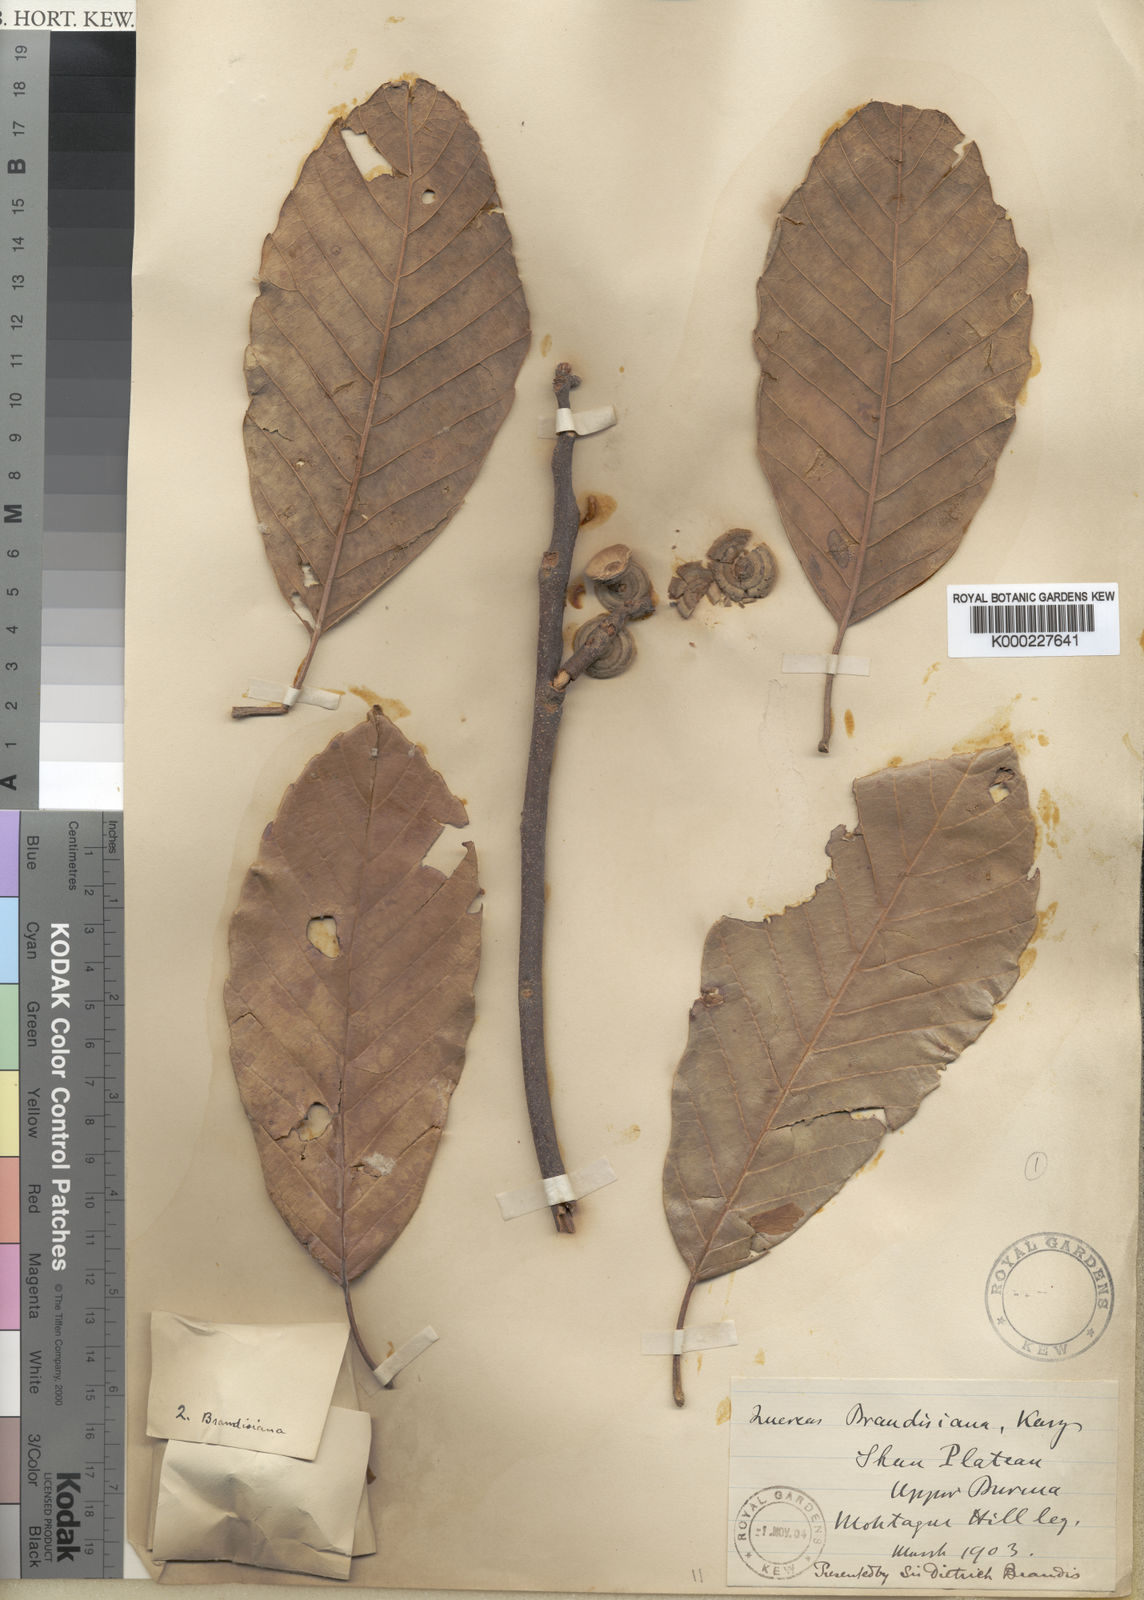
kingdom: Plantae
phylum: Tracheophyta
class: Magnoliopsida
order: Fagales
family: Fagaceae
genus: Quercus
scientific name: Quercus brandisiana
